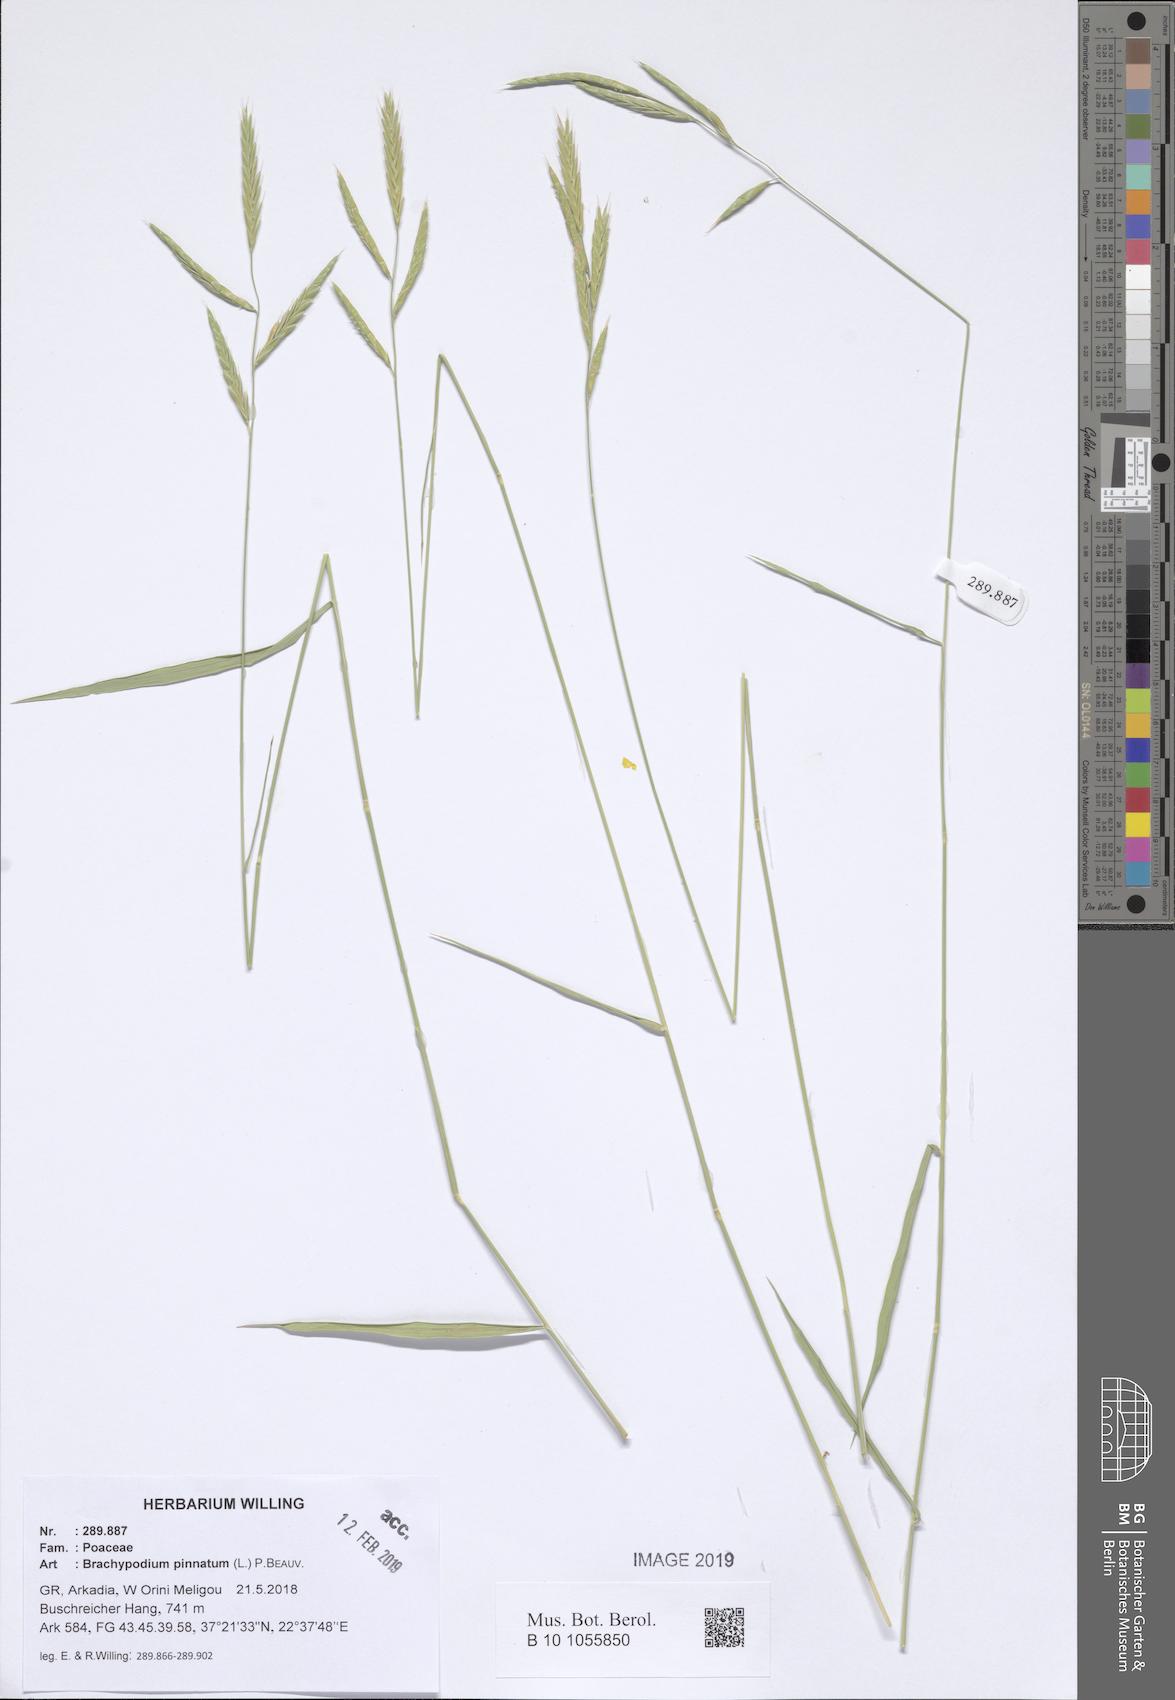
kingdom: Plantae
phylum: Tracheophyta
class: Liliopsida
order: Poales
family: Poaceae
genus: Brachypodium
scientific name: Brachypodium pinnatum
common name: Tor grass
